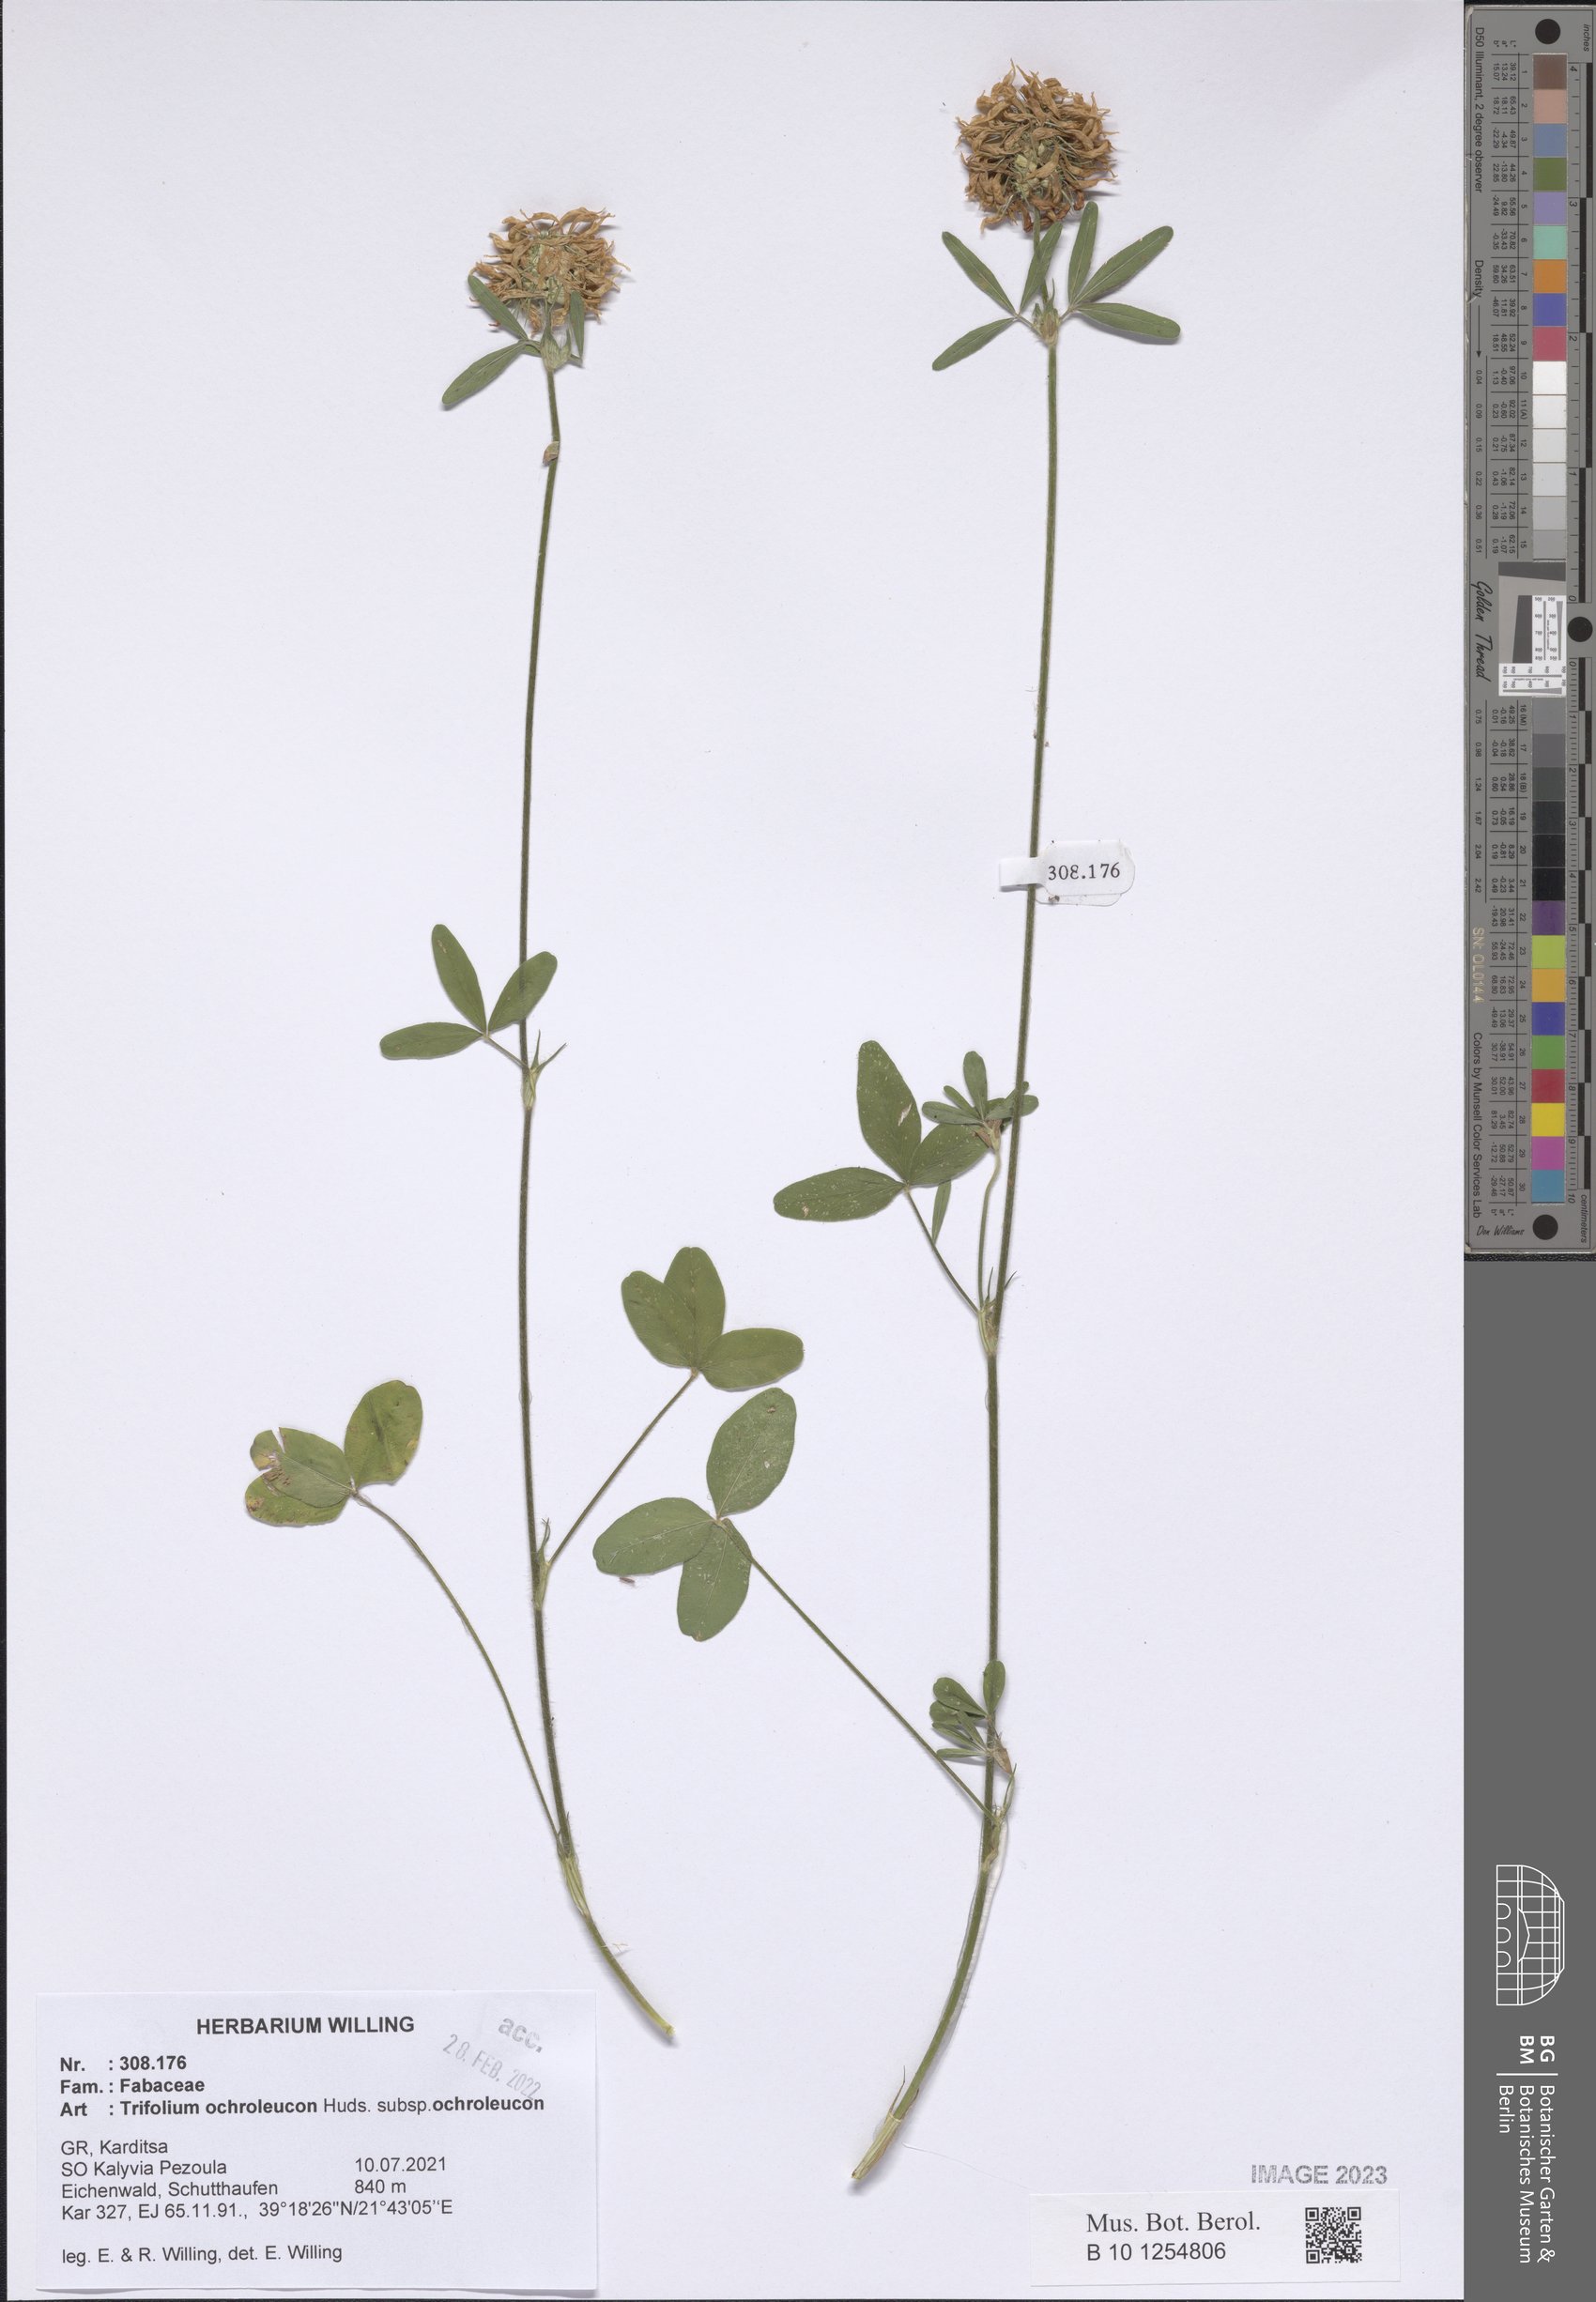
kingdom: Plantae
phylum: Tracheophyta
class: Magnoliopsida
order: Fabales
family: Fabaceae
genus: Trifolium
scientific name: Trifolium ochroleucon
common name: Sulphur clover
